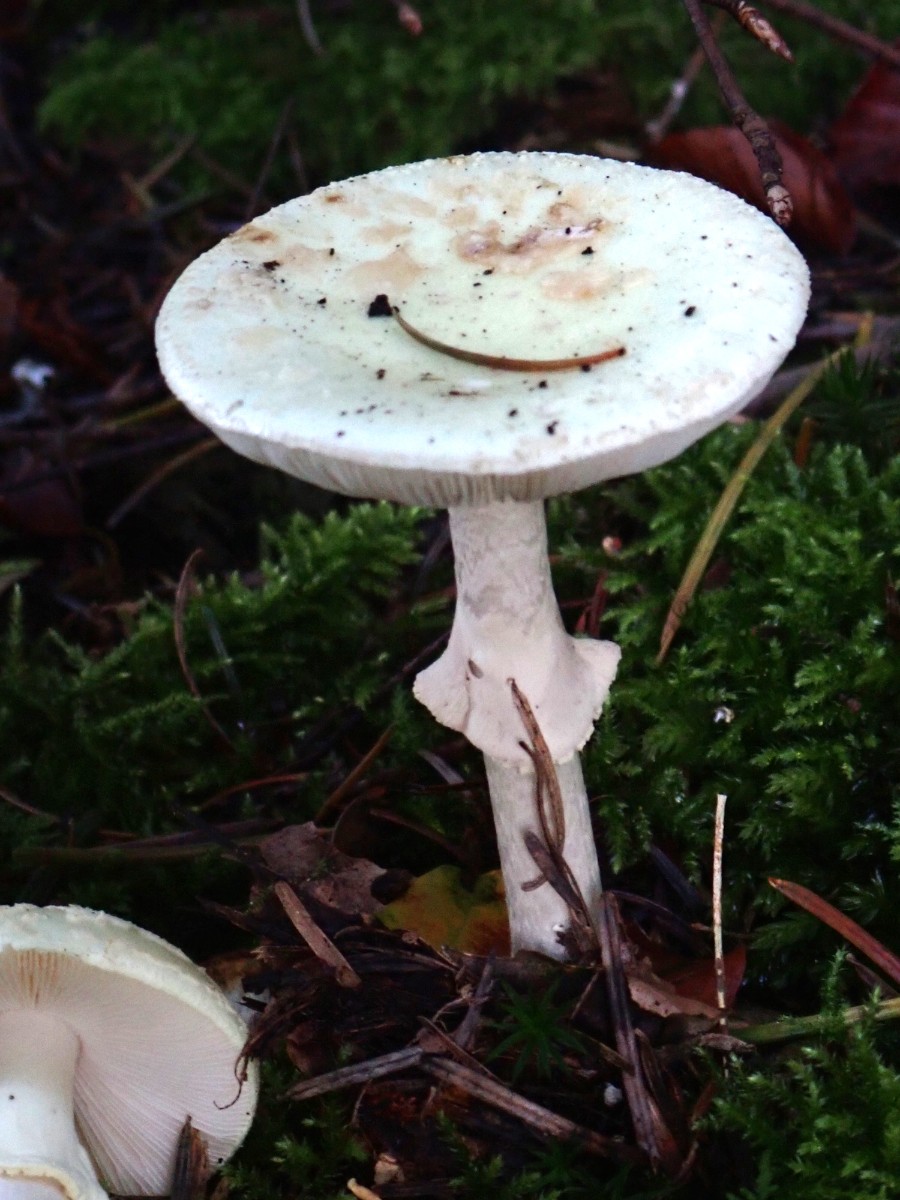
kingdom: Fungi
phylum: Basidiomycota
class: Agaricomycetes
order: Agaricales
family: Amanitaceae
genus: Amanita
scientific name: Amanita citrina
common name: kugleknoldet fluesvamp
